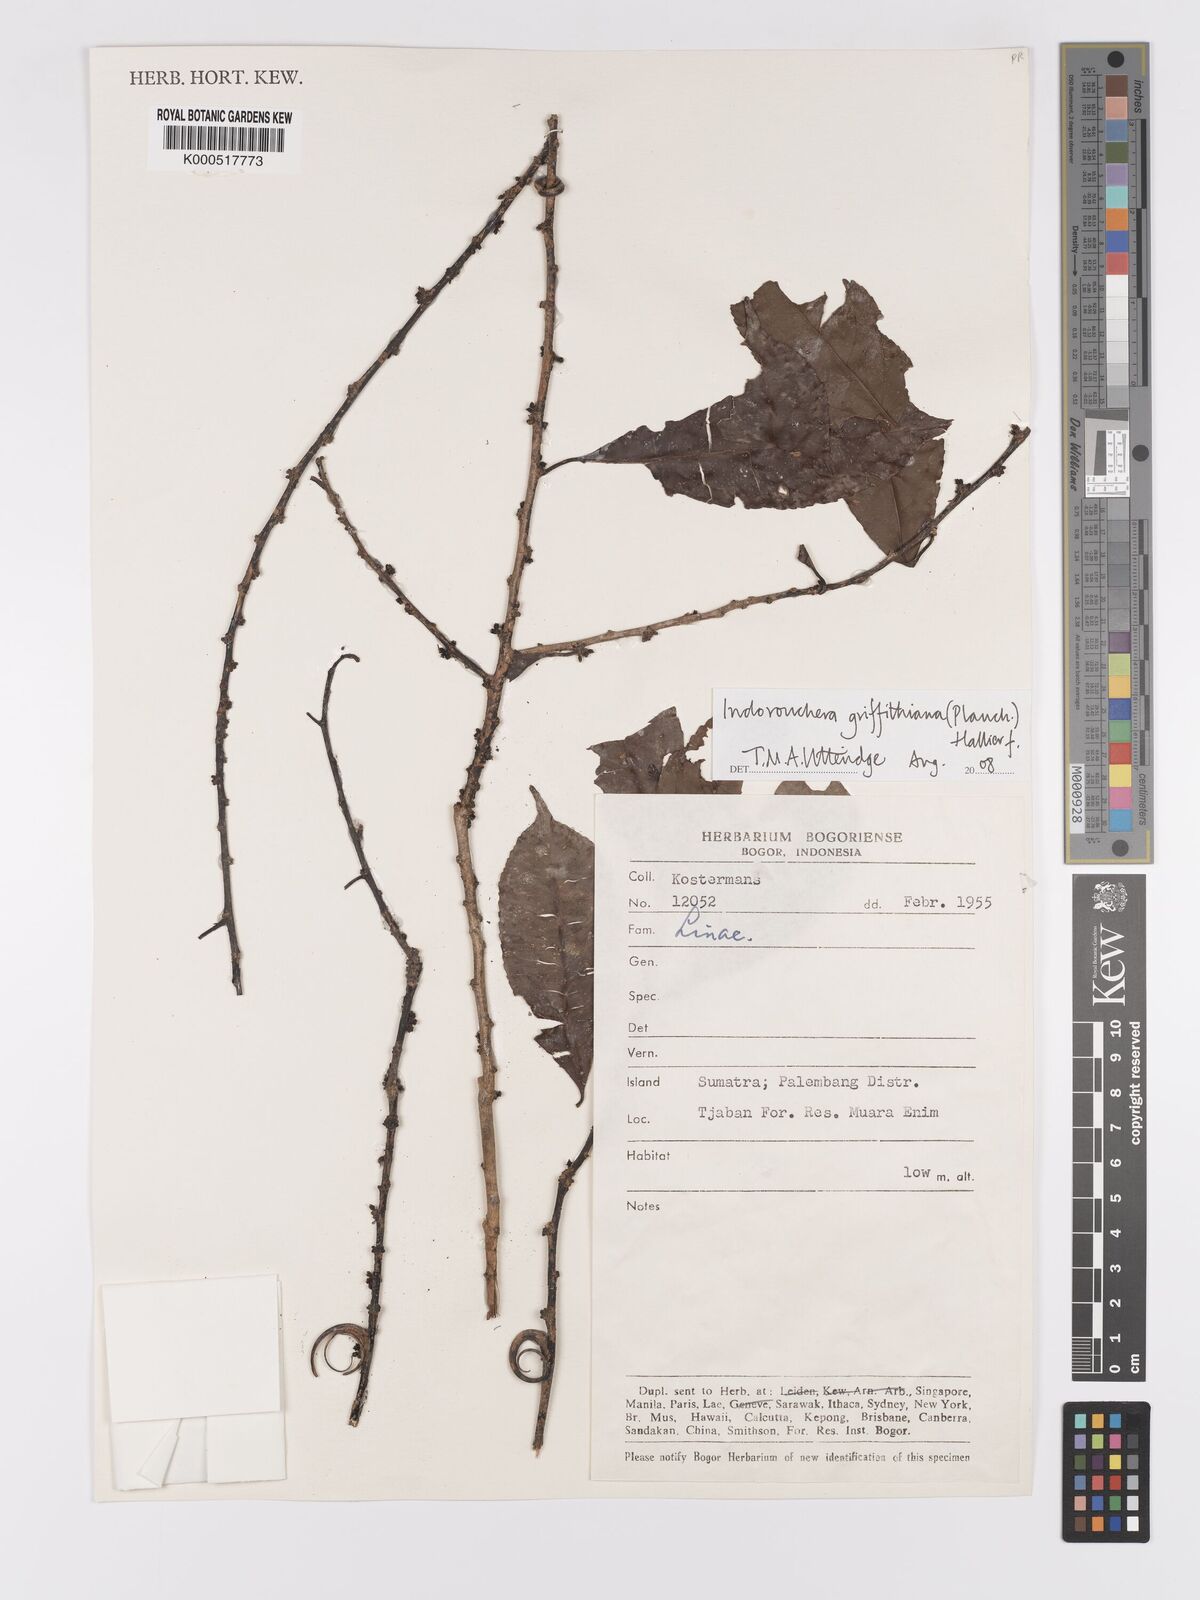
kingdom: Plantae
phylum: Tracheophyta
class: Magnoliopsida
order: Malpighiales
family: Linaceae
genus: Indorouchera
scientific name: Indorouchera griffithiana
